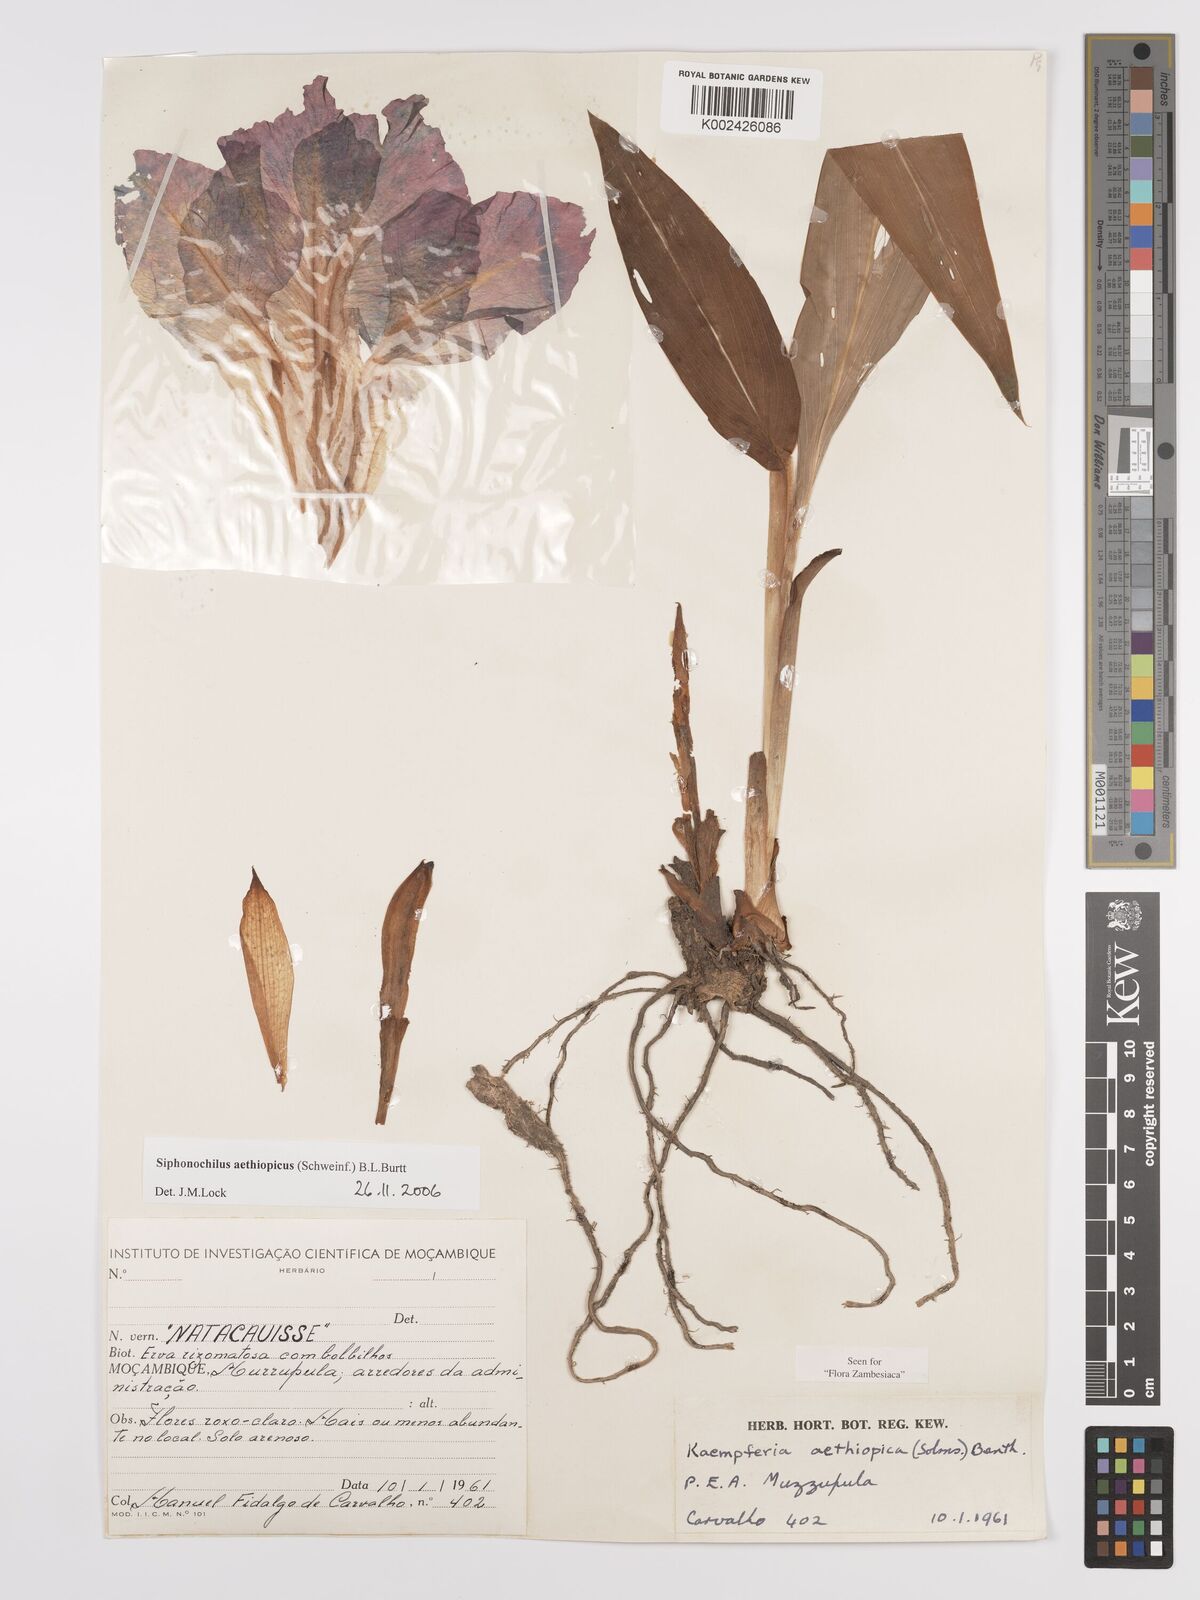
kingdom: Plantae
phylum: Tracheophyta
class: Liliopsida
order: Zingiberales
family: Zingiberaceae
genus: Siphonochilus
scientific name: Siphonochilus aethiopicus
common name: African-ginger
